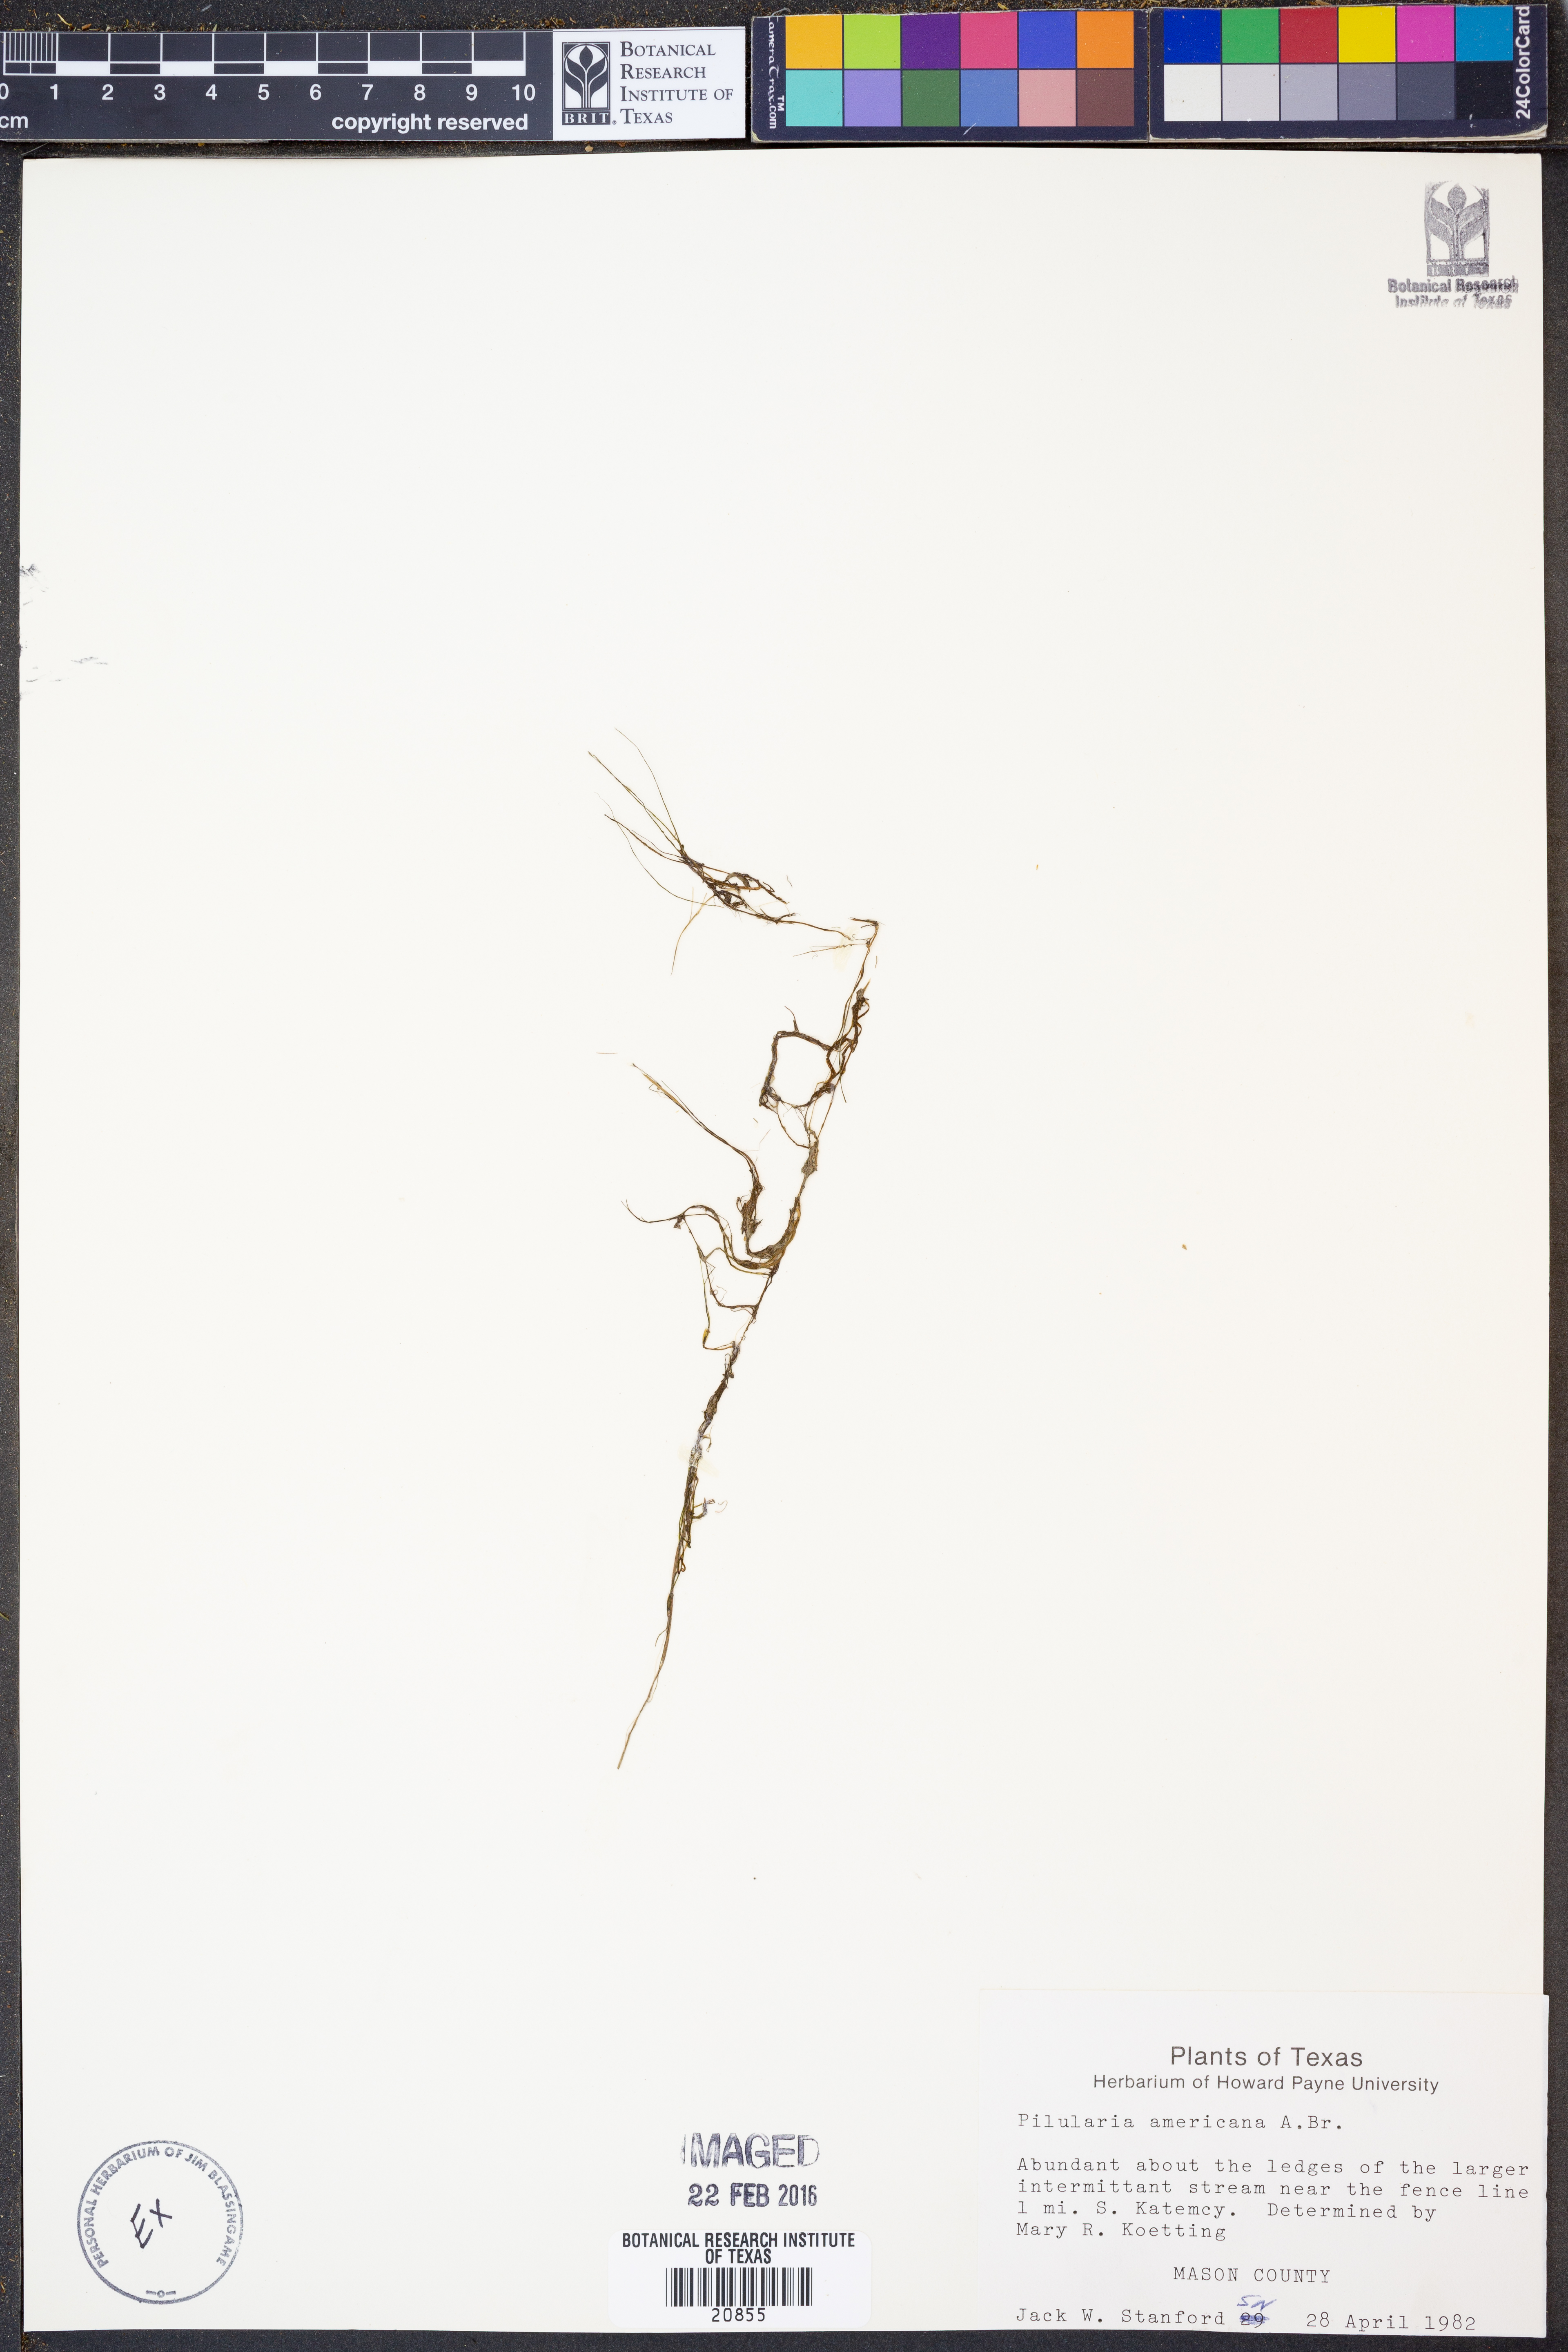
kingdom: Plantae
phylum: Tracheophyta
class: Polypodiopsida
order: Salviniales
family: Marsileaceae
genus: Pilularia
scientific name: Pilularia americana
